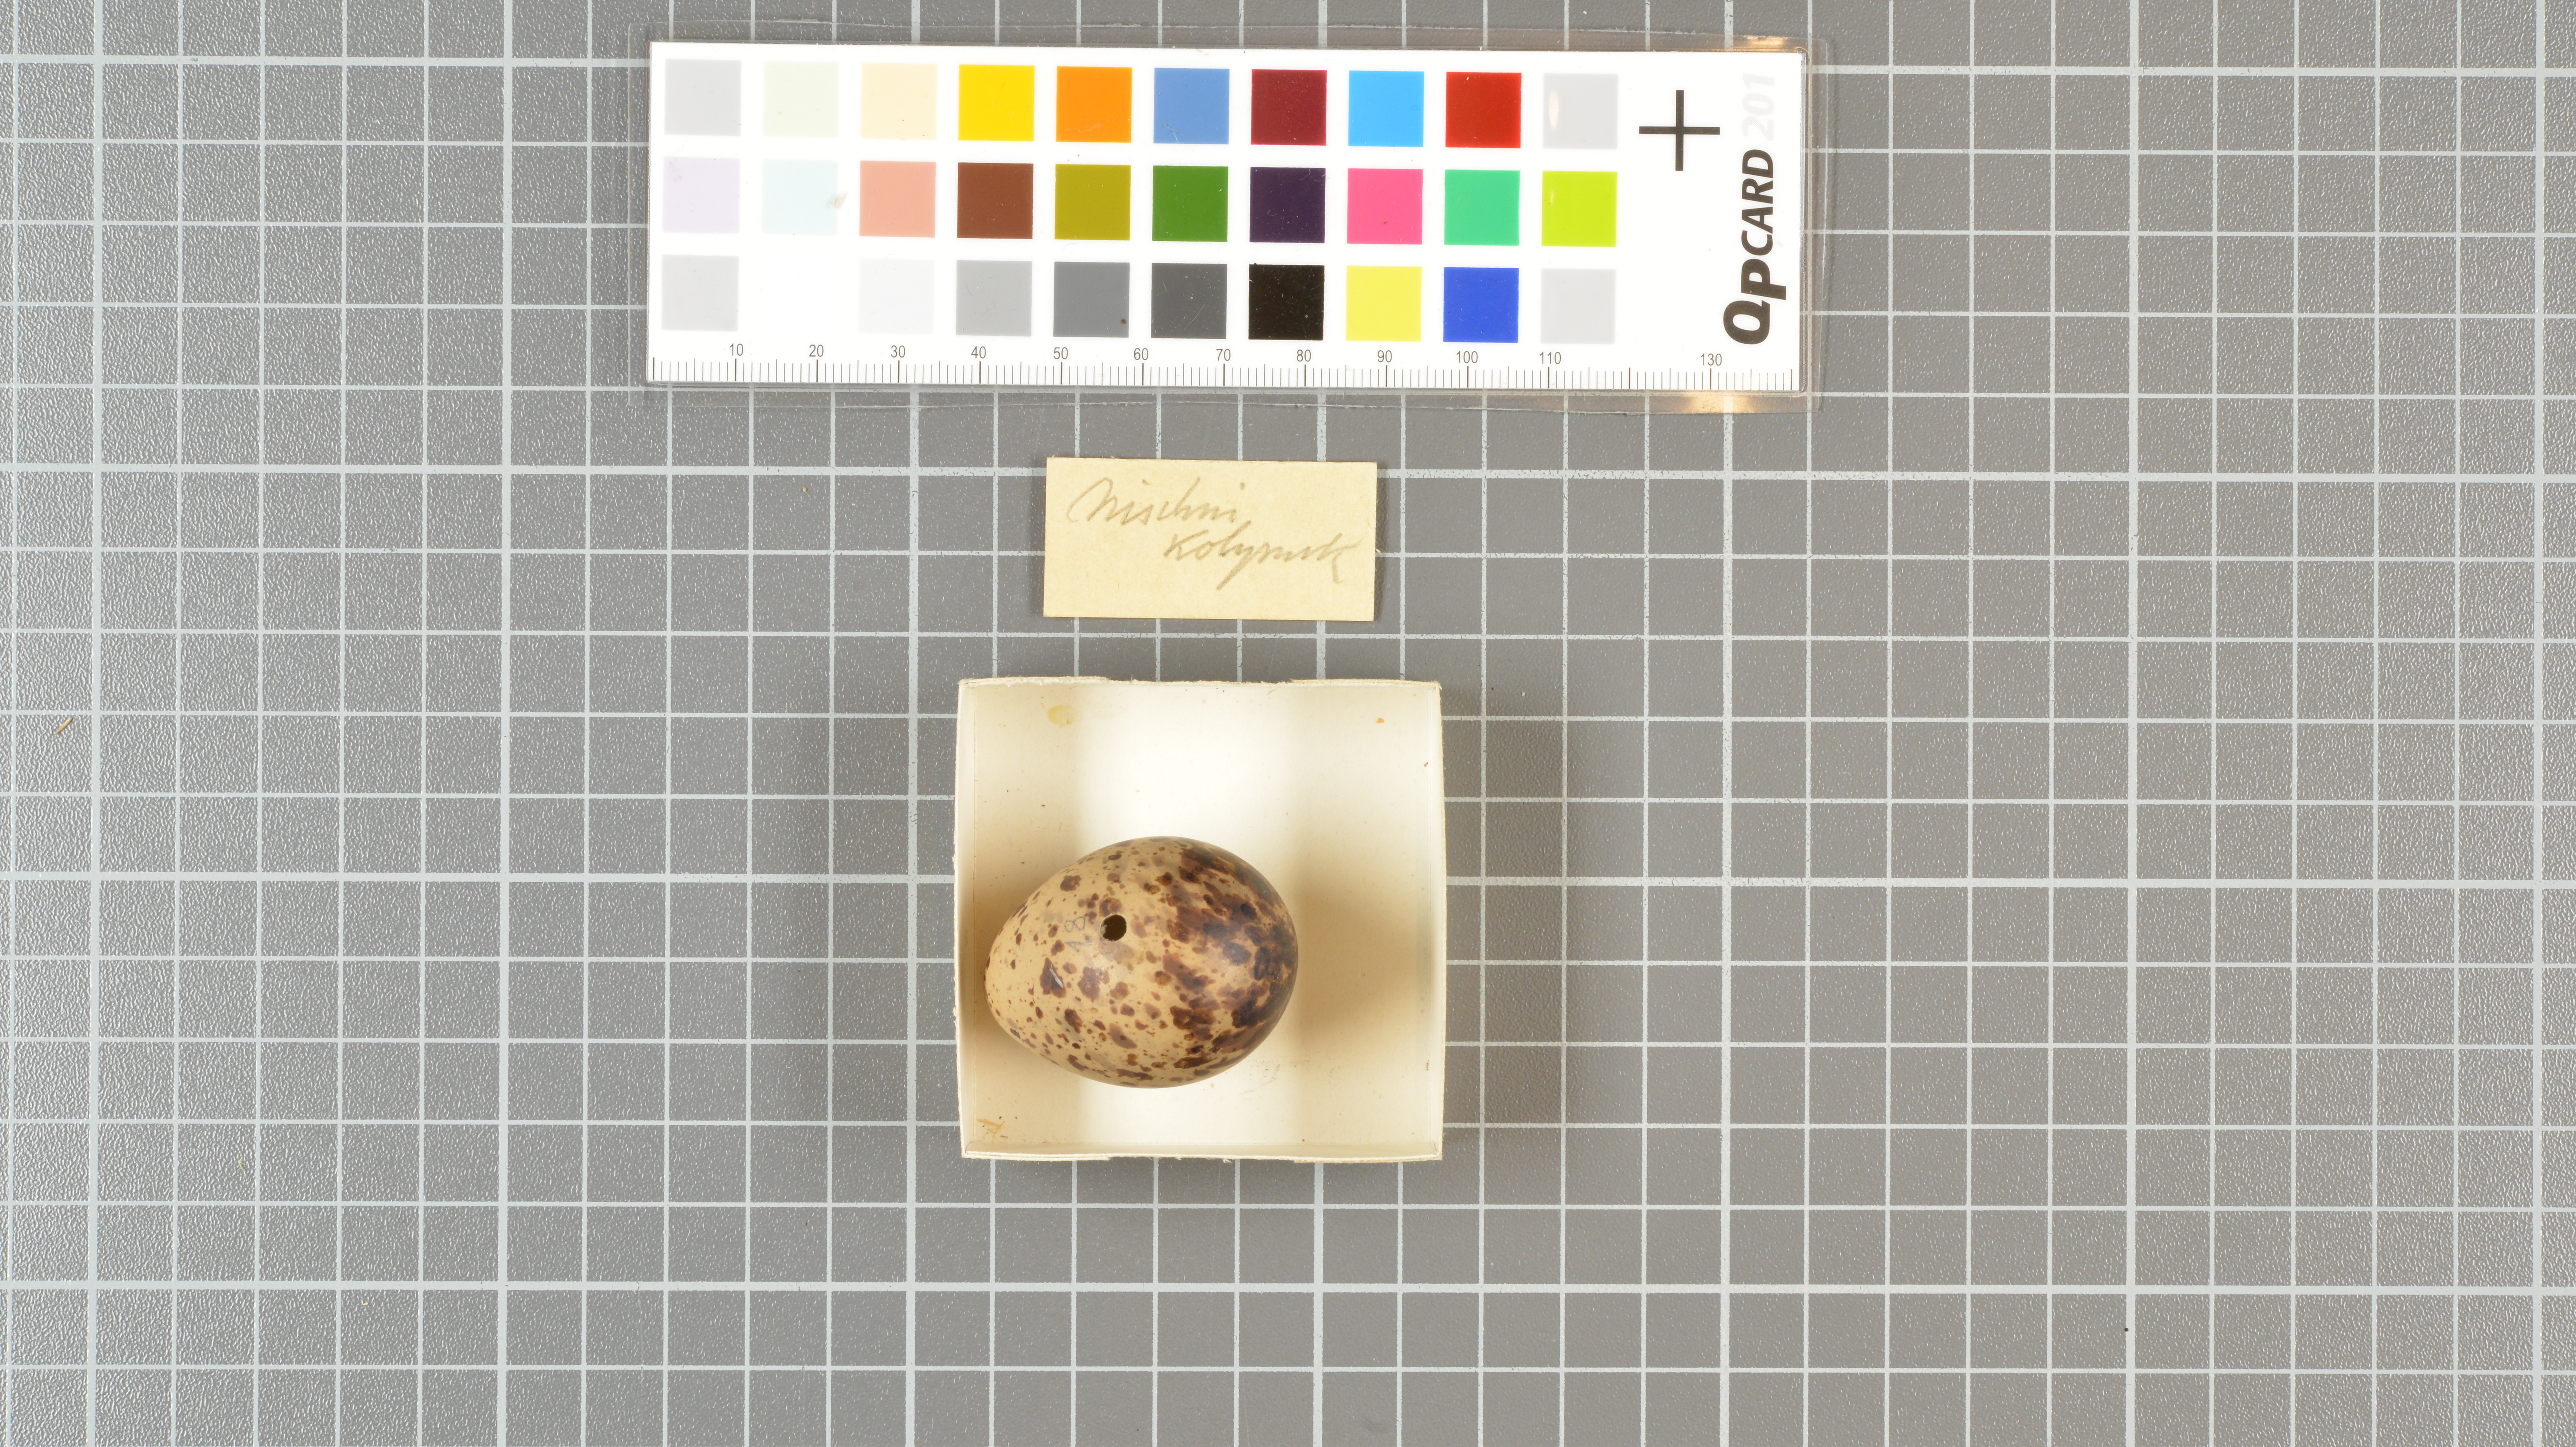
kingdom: Animalia
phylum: Chordata
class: Aves
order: Charadriiformes
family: Scolopacidae
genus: Gallinago
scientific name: Gallinago gallinago
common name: Common snipe
